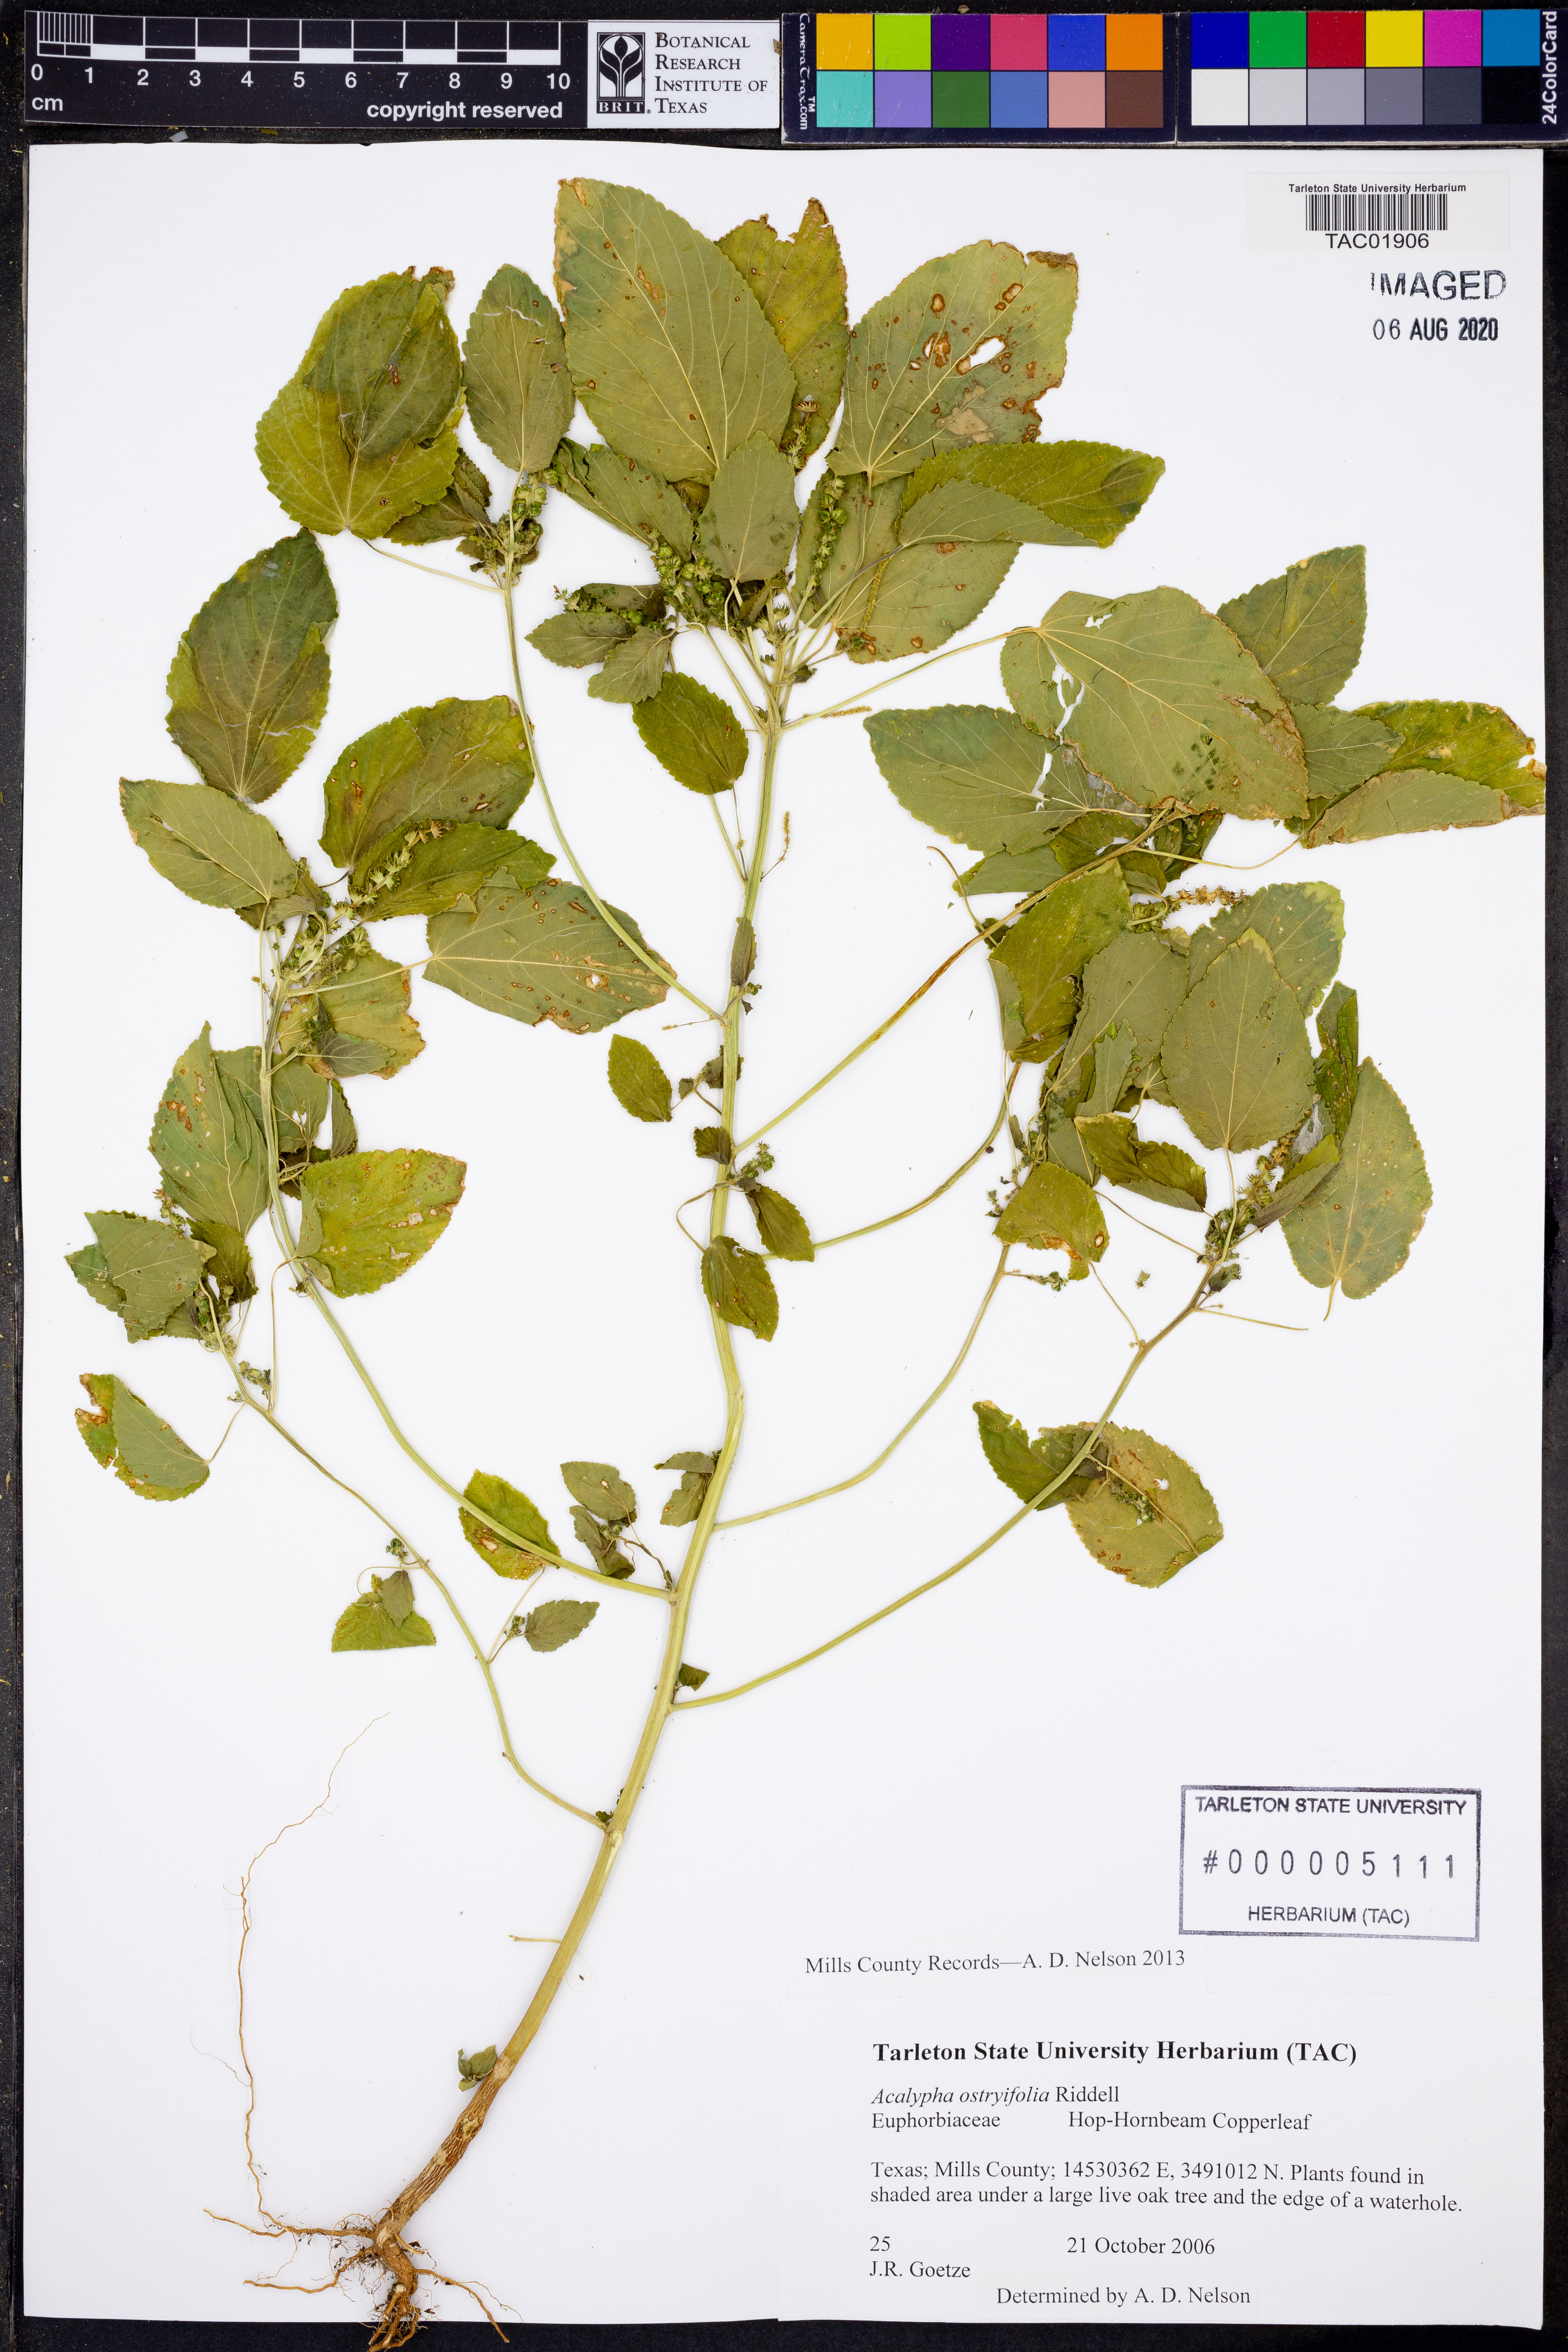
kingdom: Plantae
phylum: Tracheophyta
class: Magnoliopsida
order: Malpighiales
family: Euphorbiaceae
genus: Acalypha
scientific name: Acalypha persimilis
